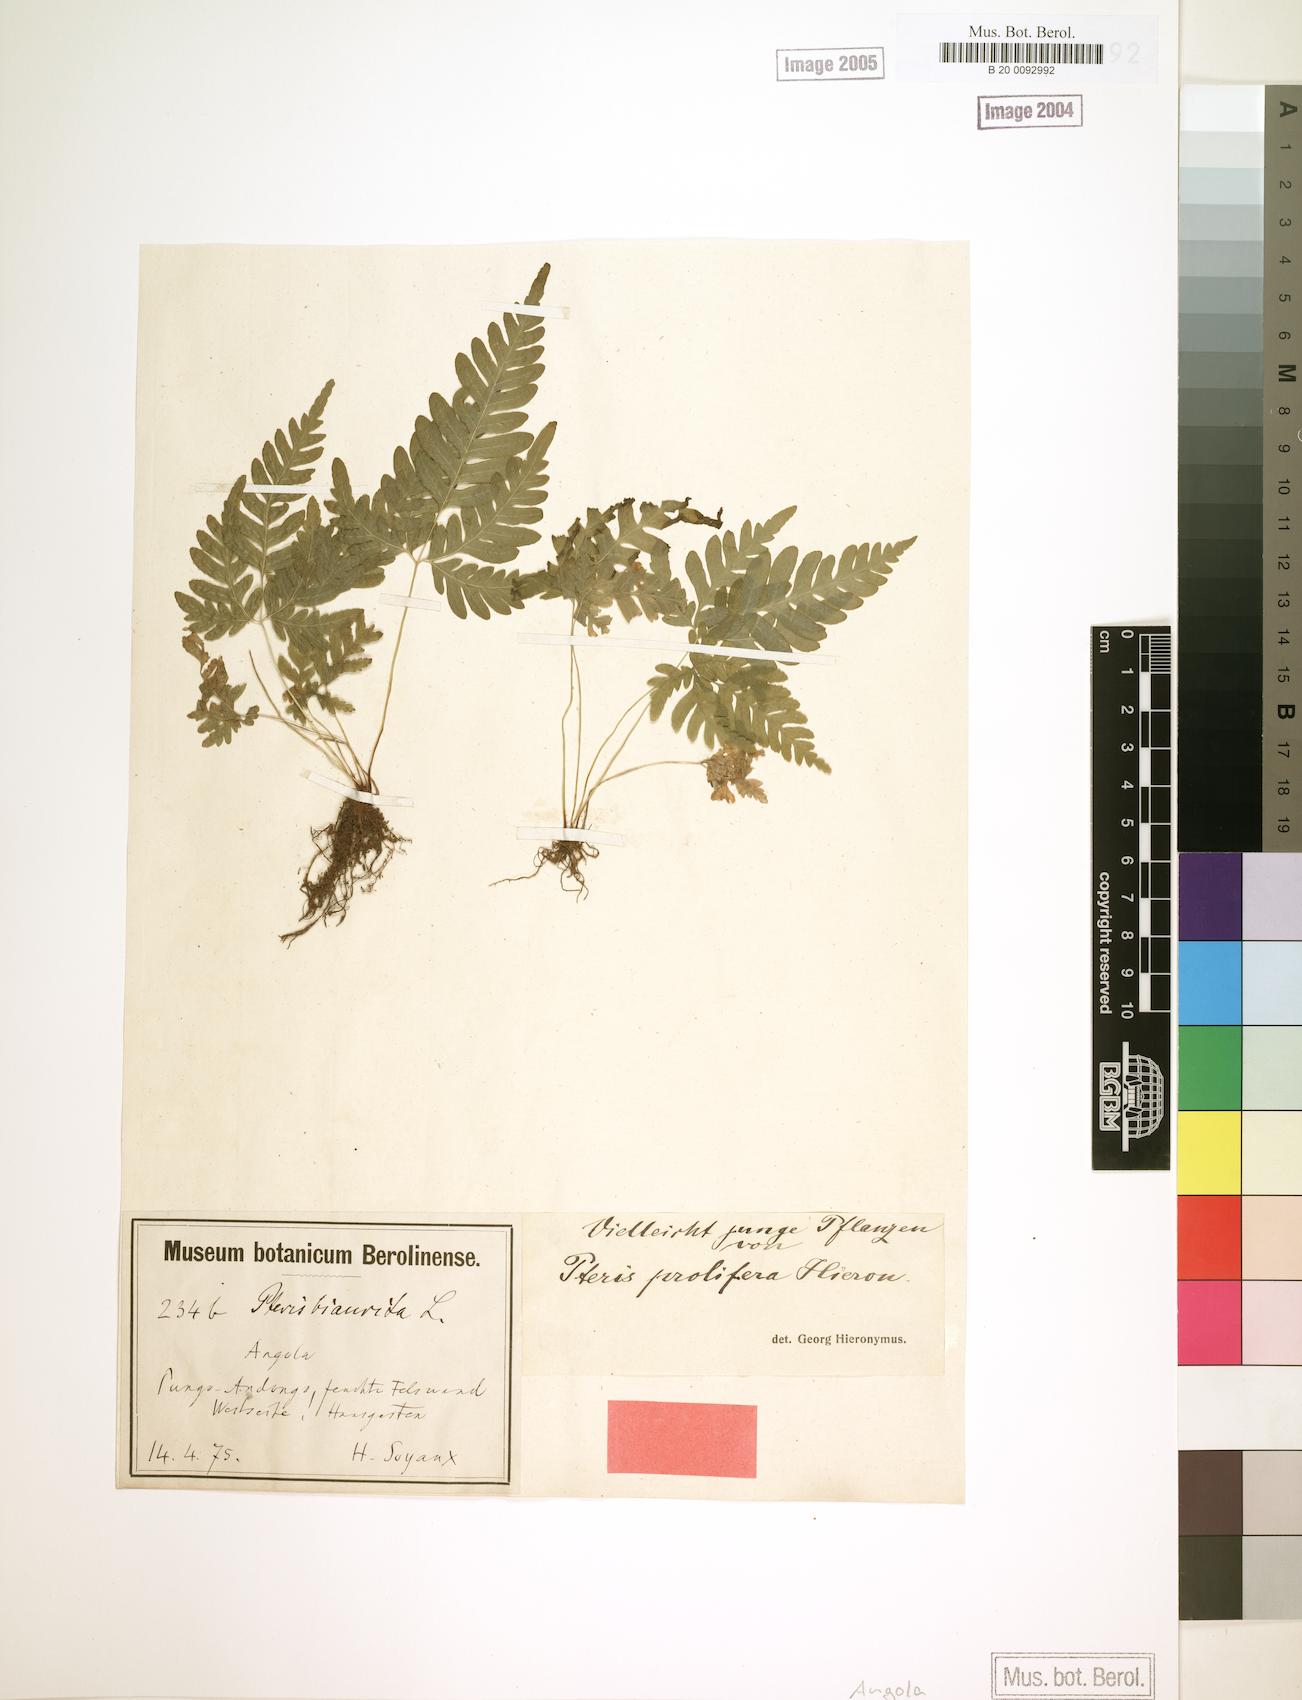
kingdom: Plantae
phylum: Tracheophyta
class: Polypodiopsida
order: Polypodiales
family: Pteridaceae
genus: Pteris
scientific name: Pteris preussii
